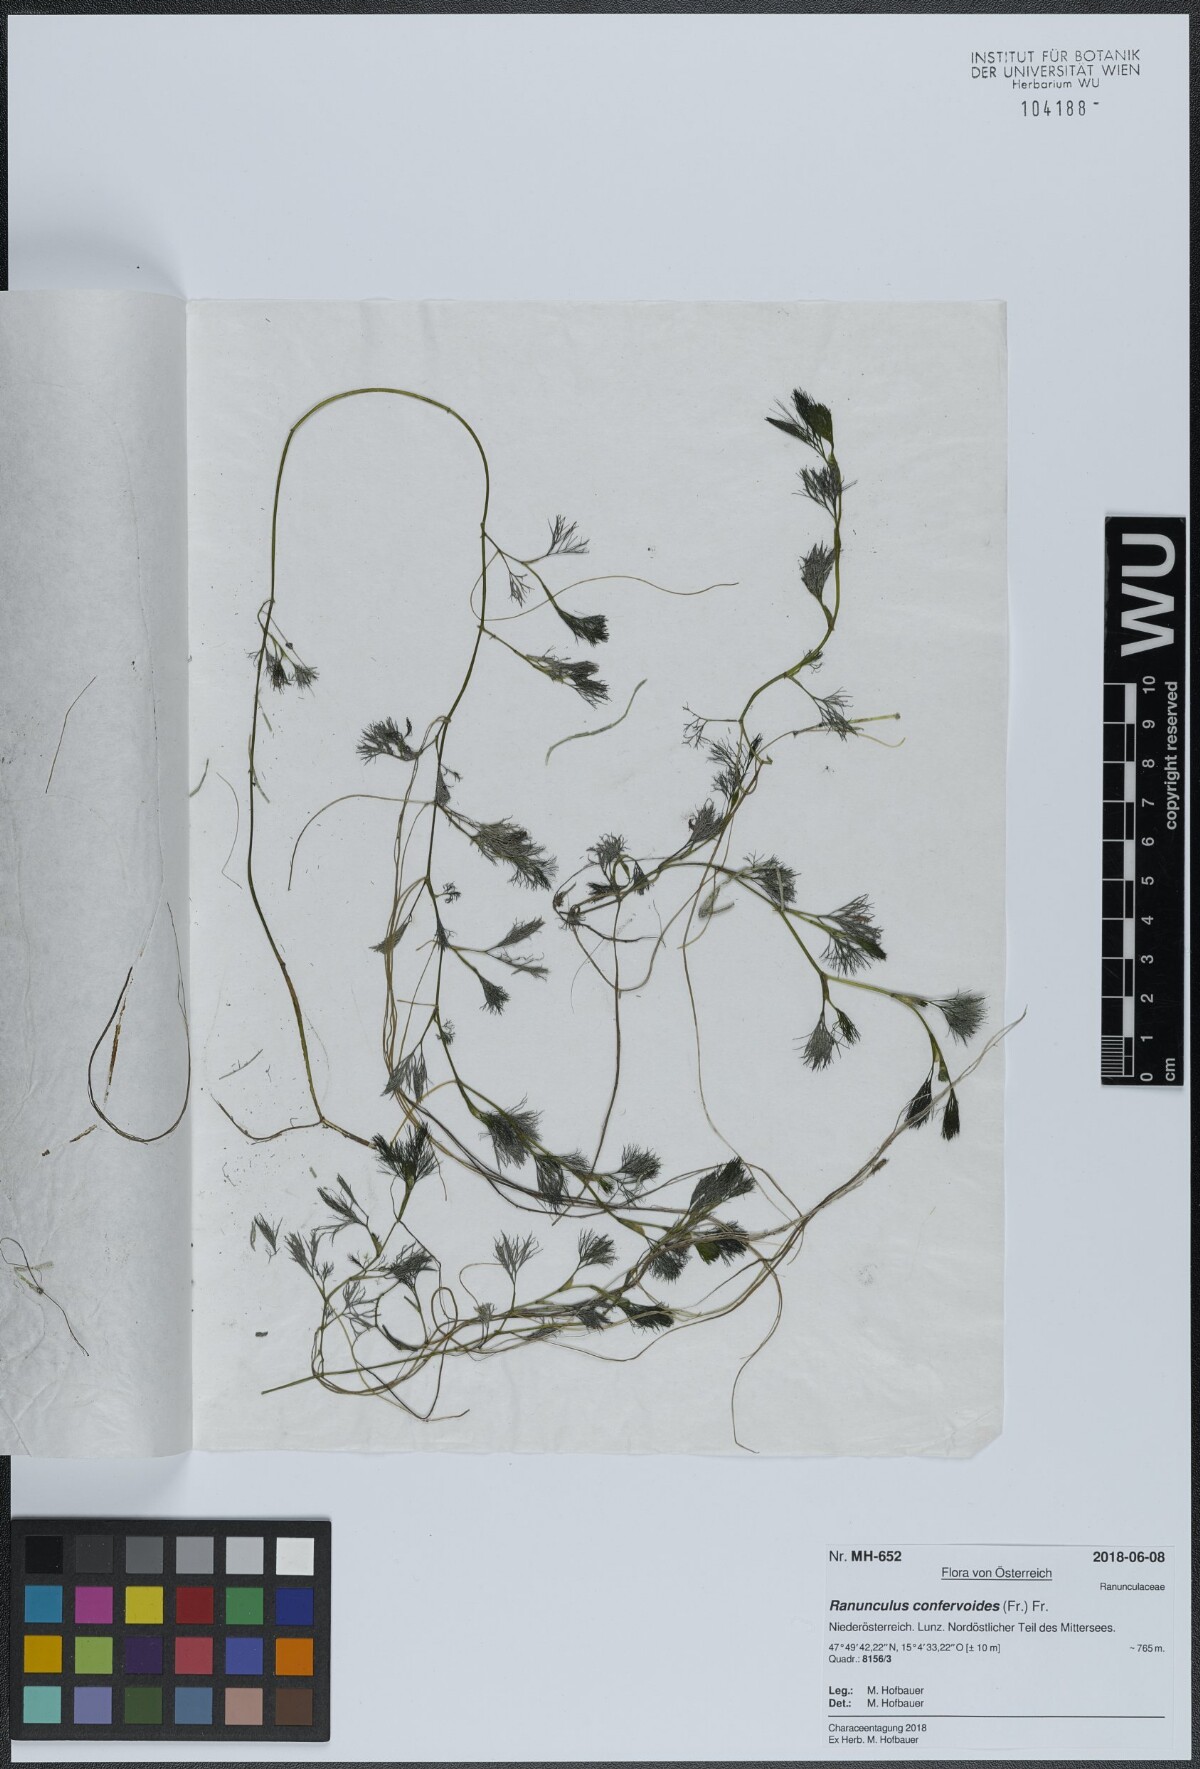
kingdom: Plantae
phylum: Tracheophyta
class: Magnoliopsida
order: Ranunculales
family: Ranunculaceae
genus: Ranunculus
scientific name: Ranunculus confervoides
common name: Delicate buttercup
